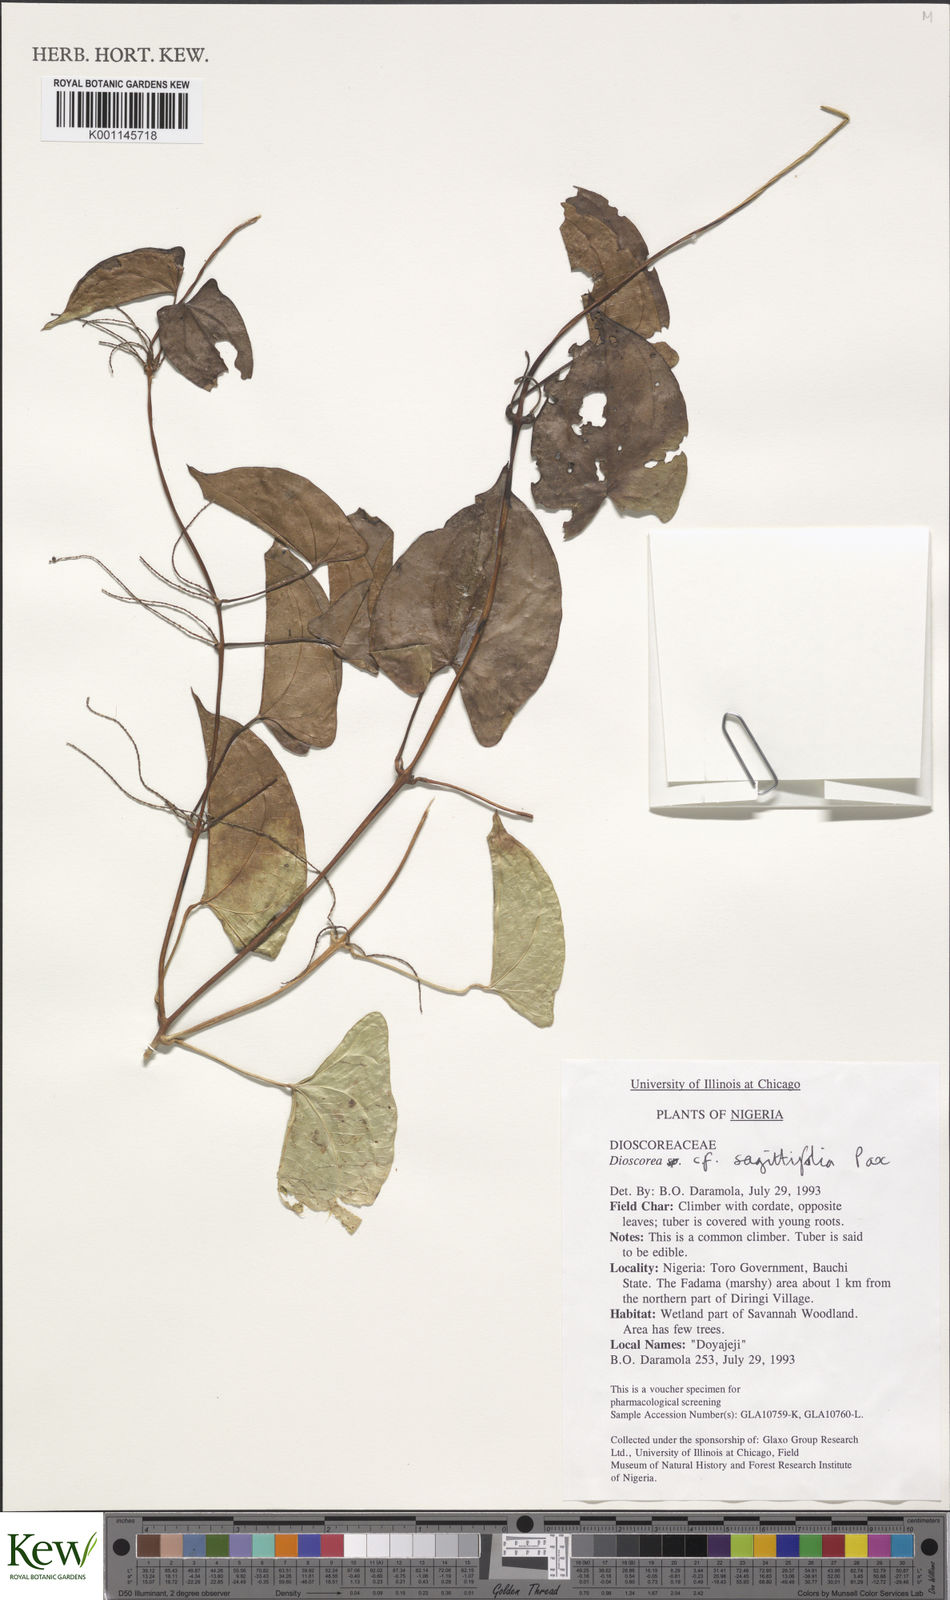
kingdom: Plantae
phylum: Tracheophyta
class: Liliopsida
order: Dioscoreales
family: Dioscoreaceae
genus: Dioscorea
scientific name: Dioscorea sagittifolia
